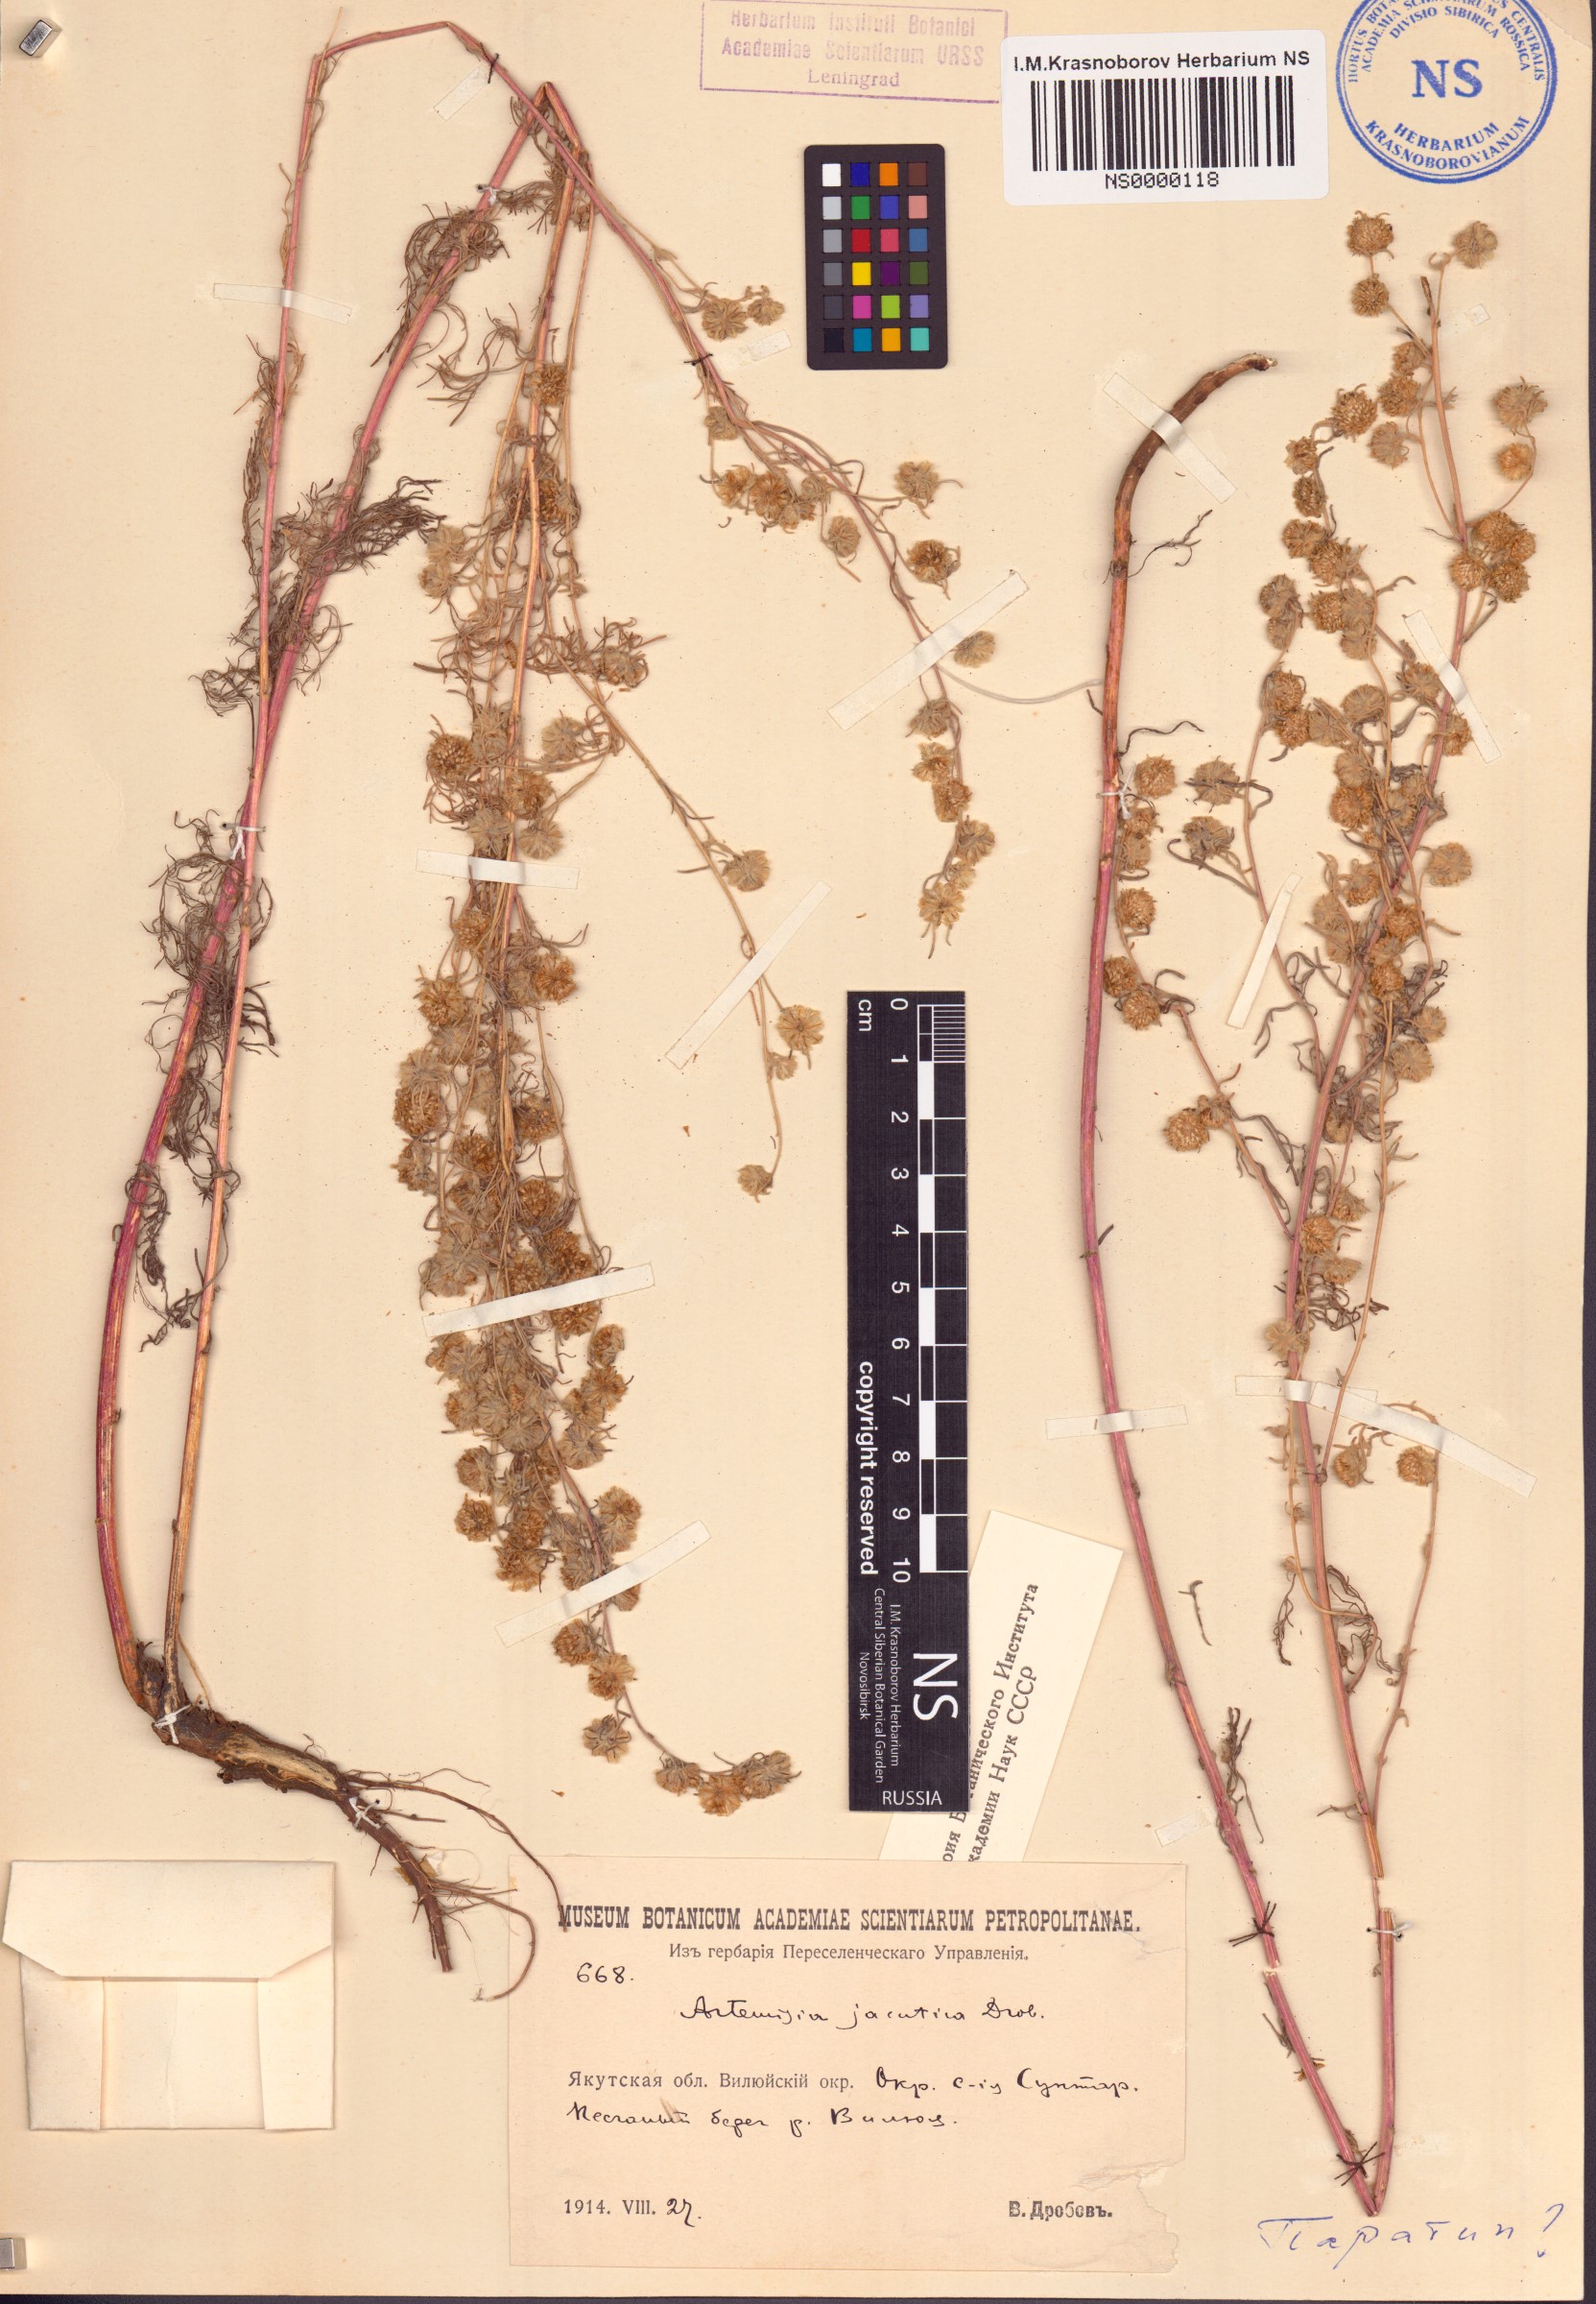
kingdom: Plantae
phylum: Tracheophyta
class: Magnoliopsida
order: Asterales
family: Asteraceae
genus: Artemisia
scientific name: Artemisia jacutica
